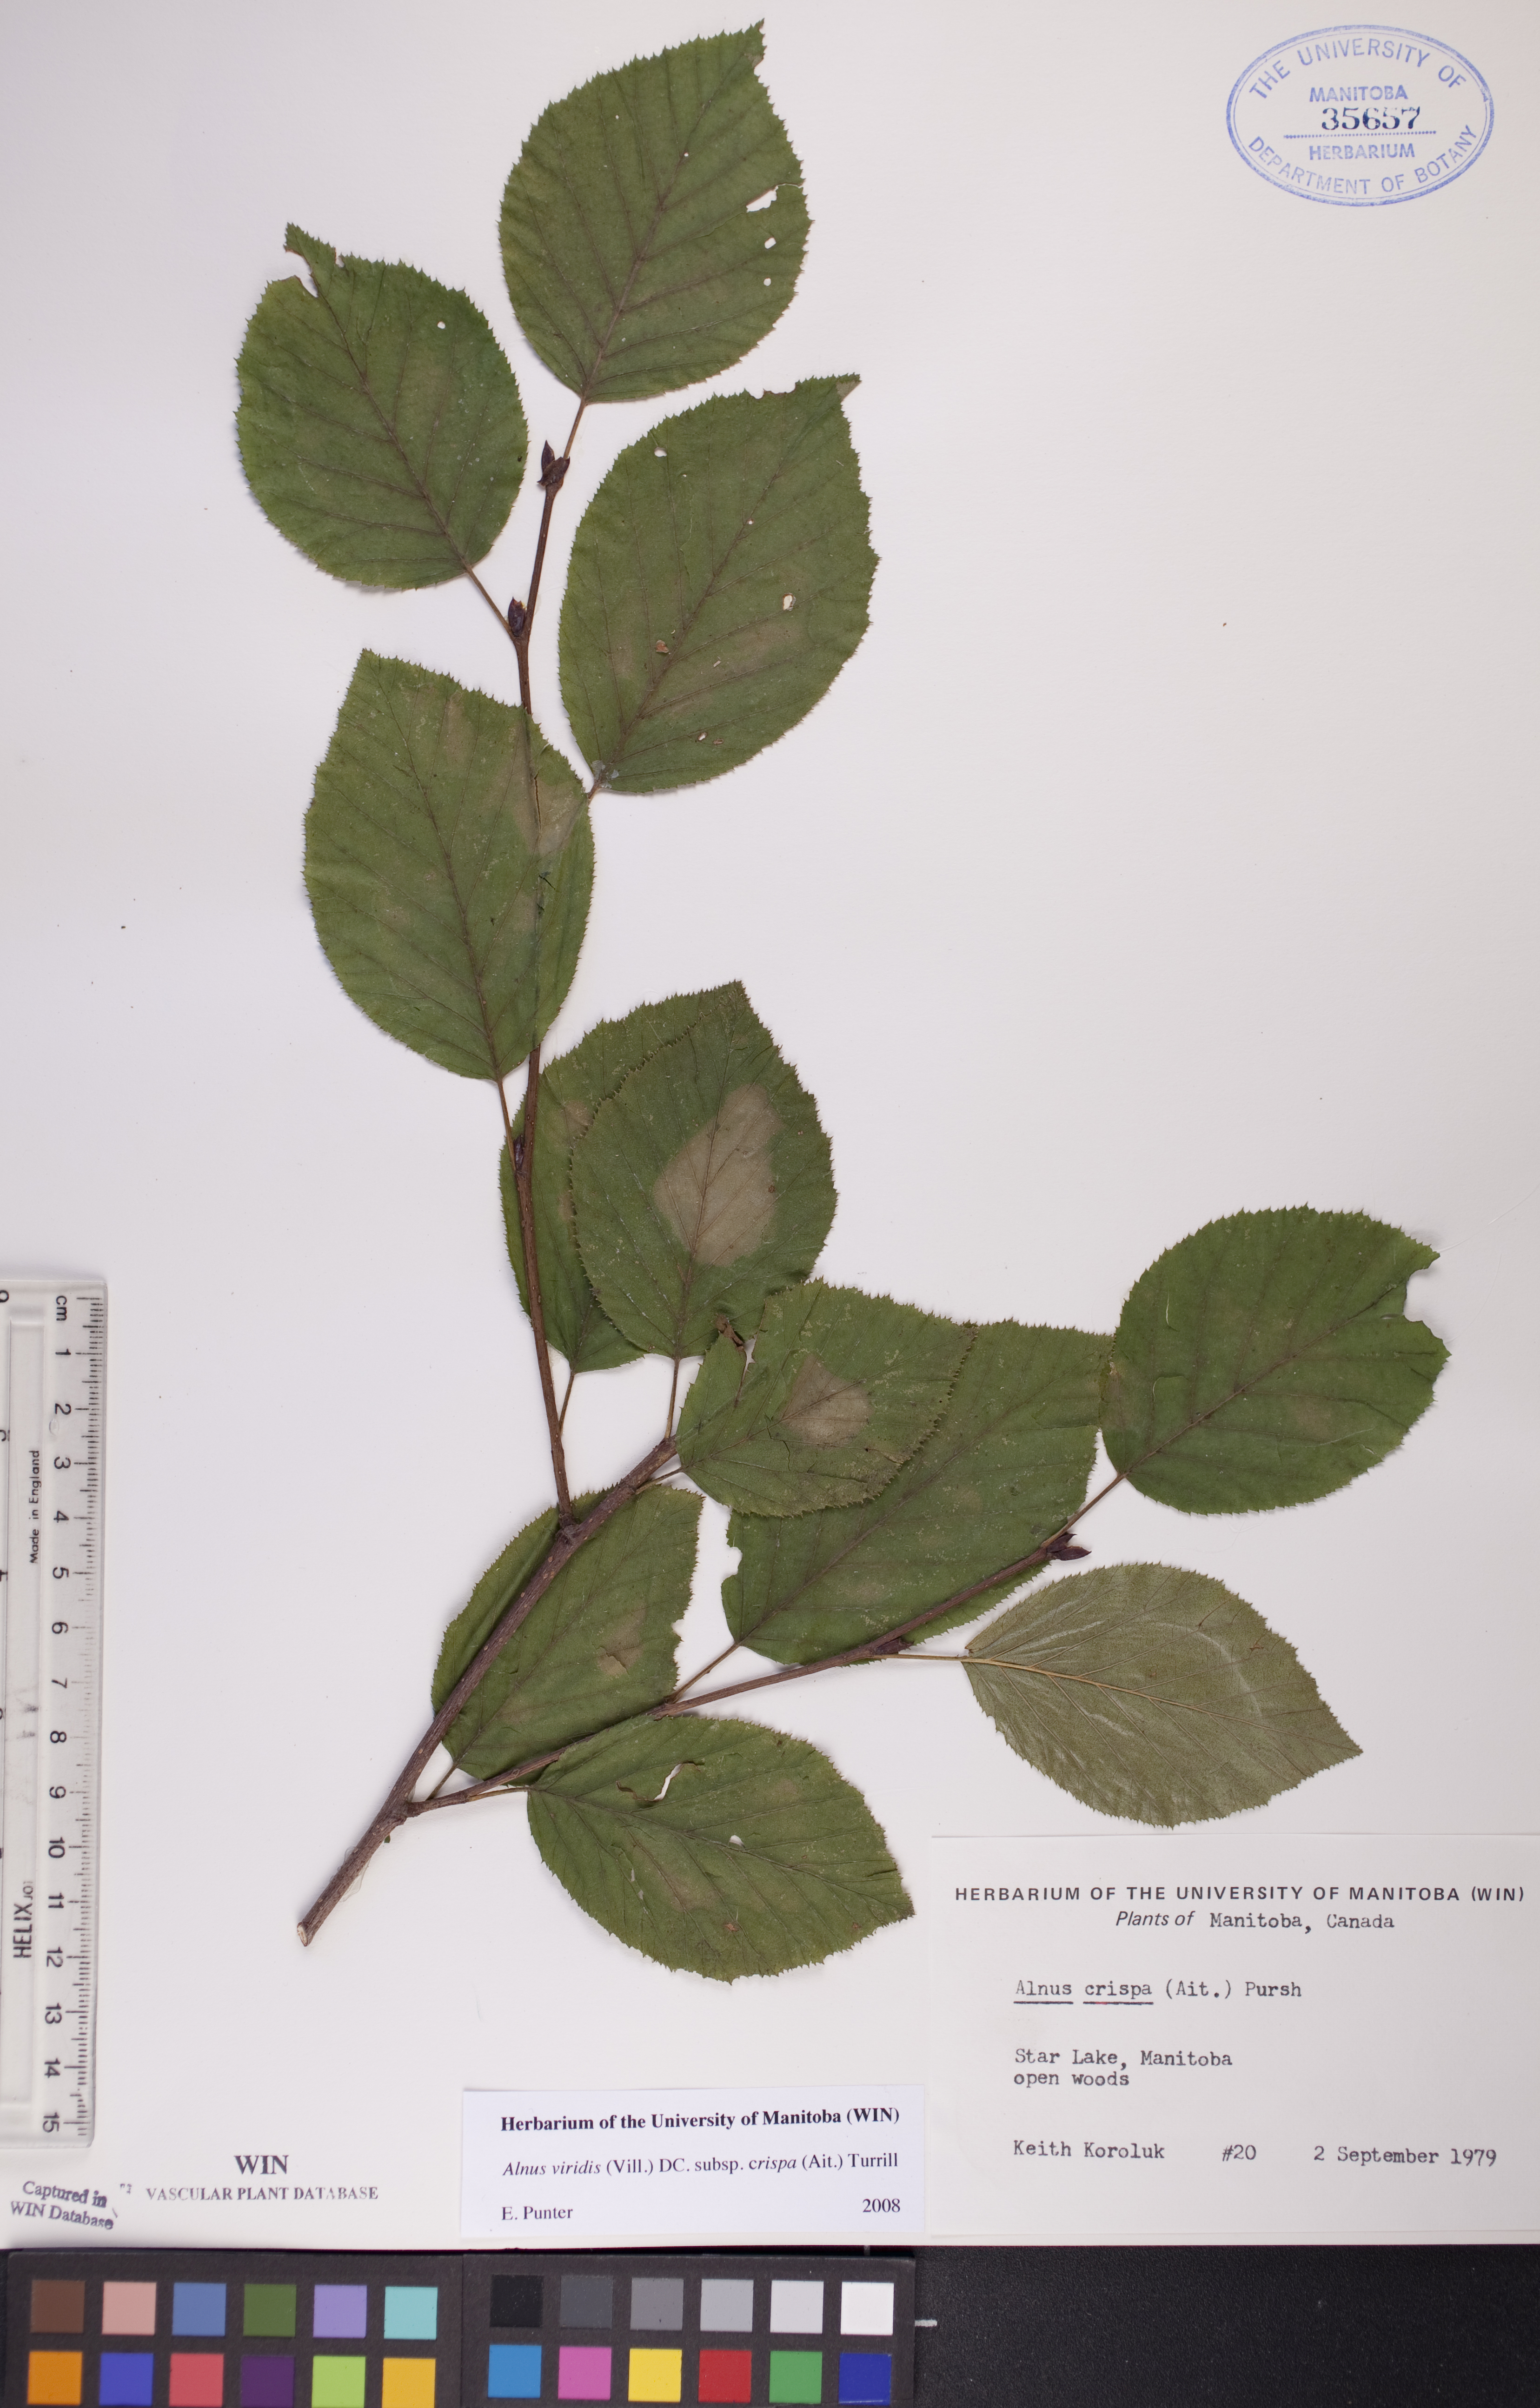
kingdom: Plantae
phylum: Tracheophyta
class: Magnoliopsida
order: Fagales
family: Betulaceae
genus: Alnus
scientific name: Alnus alnobetula
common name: Green alder
